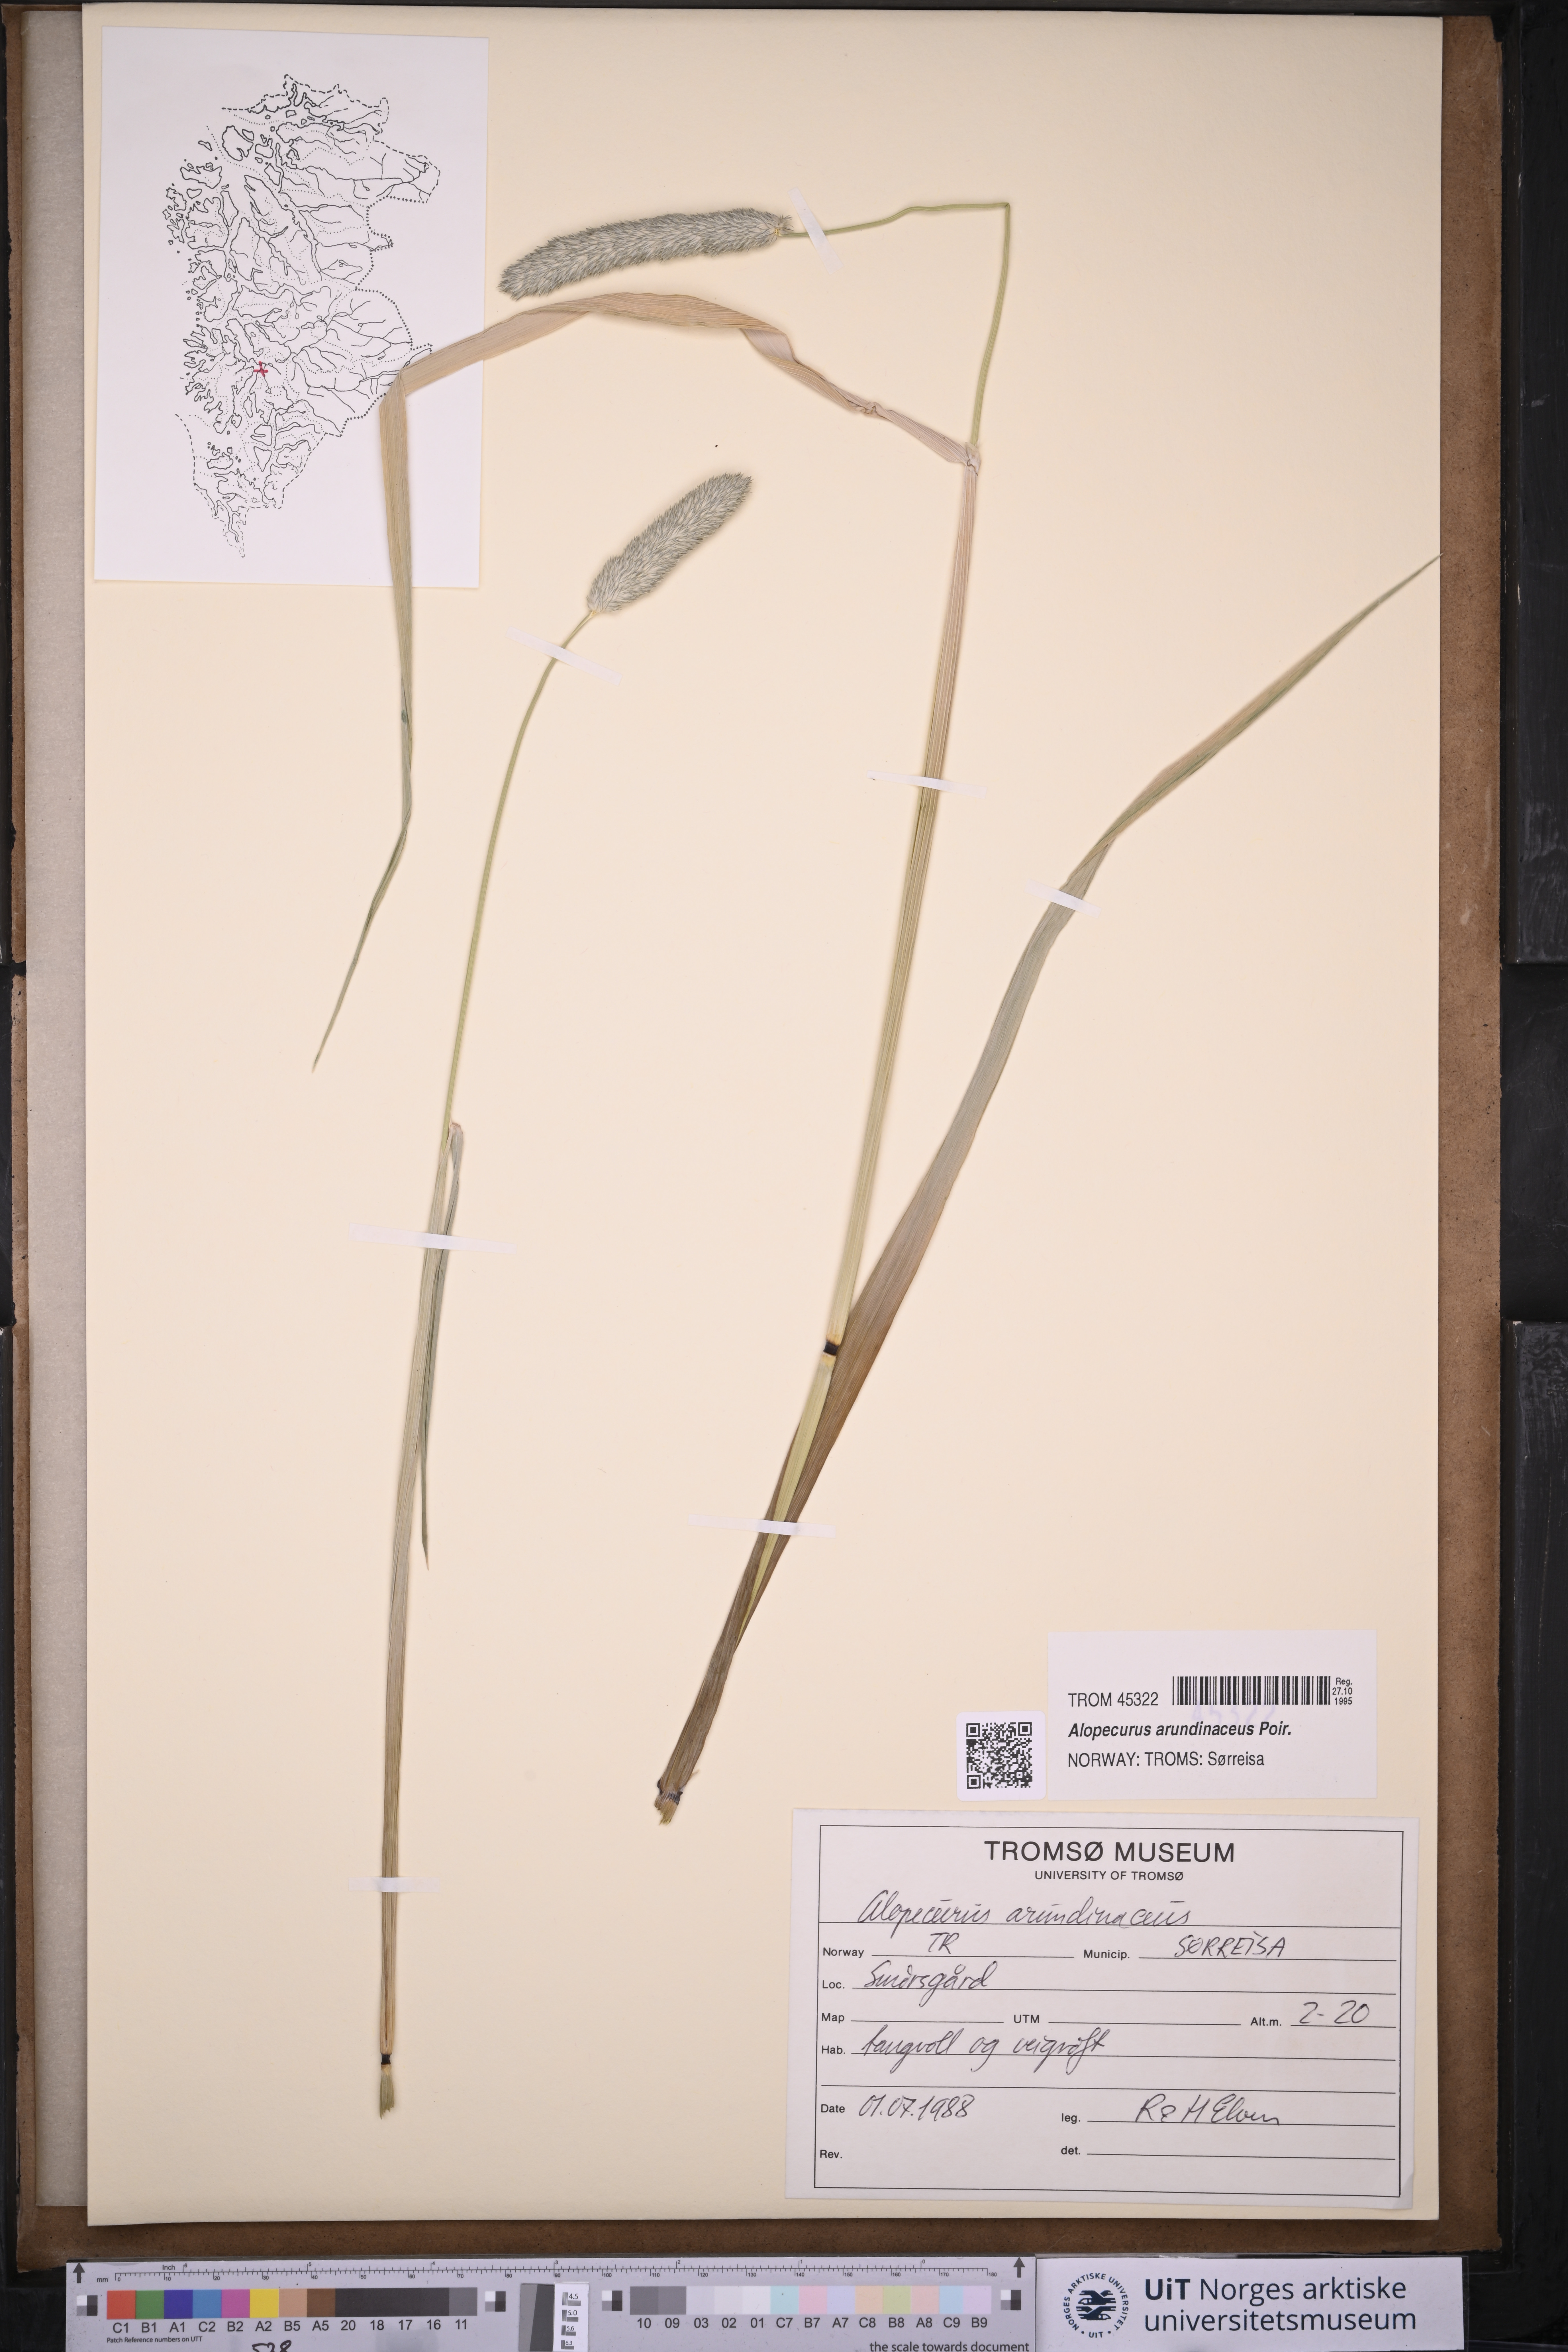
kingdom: Plantae
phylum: Tracheophyta
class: Liliopsida
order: Poales
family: Poaceae
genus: Alopecurus
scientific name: Alopecurus arundinaceus
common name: Creeping meadow foxtail
